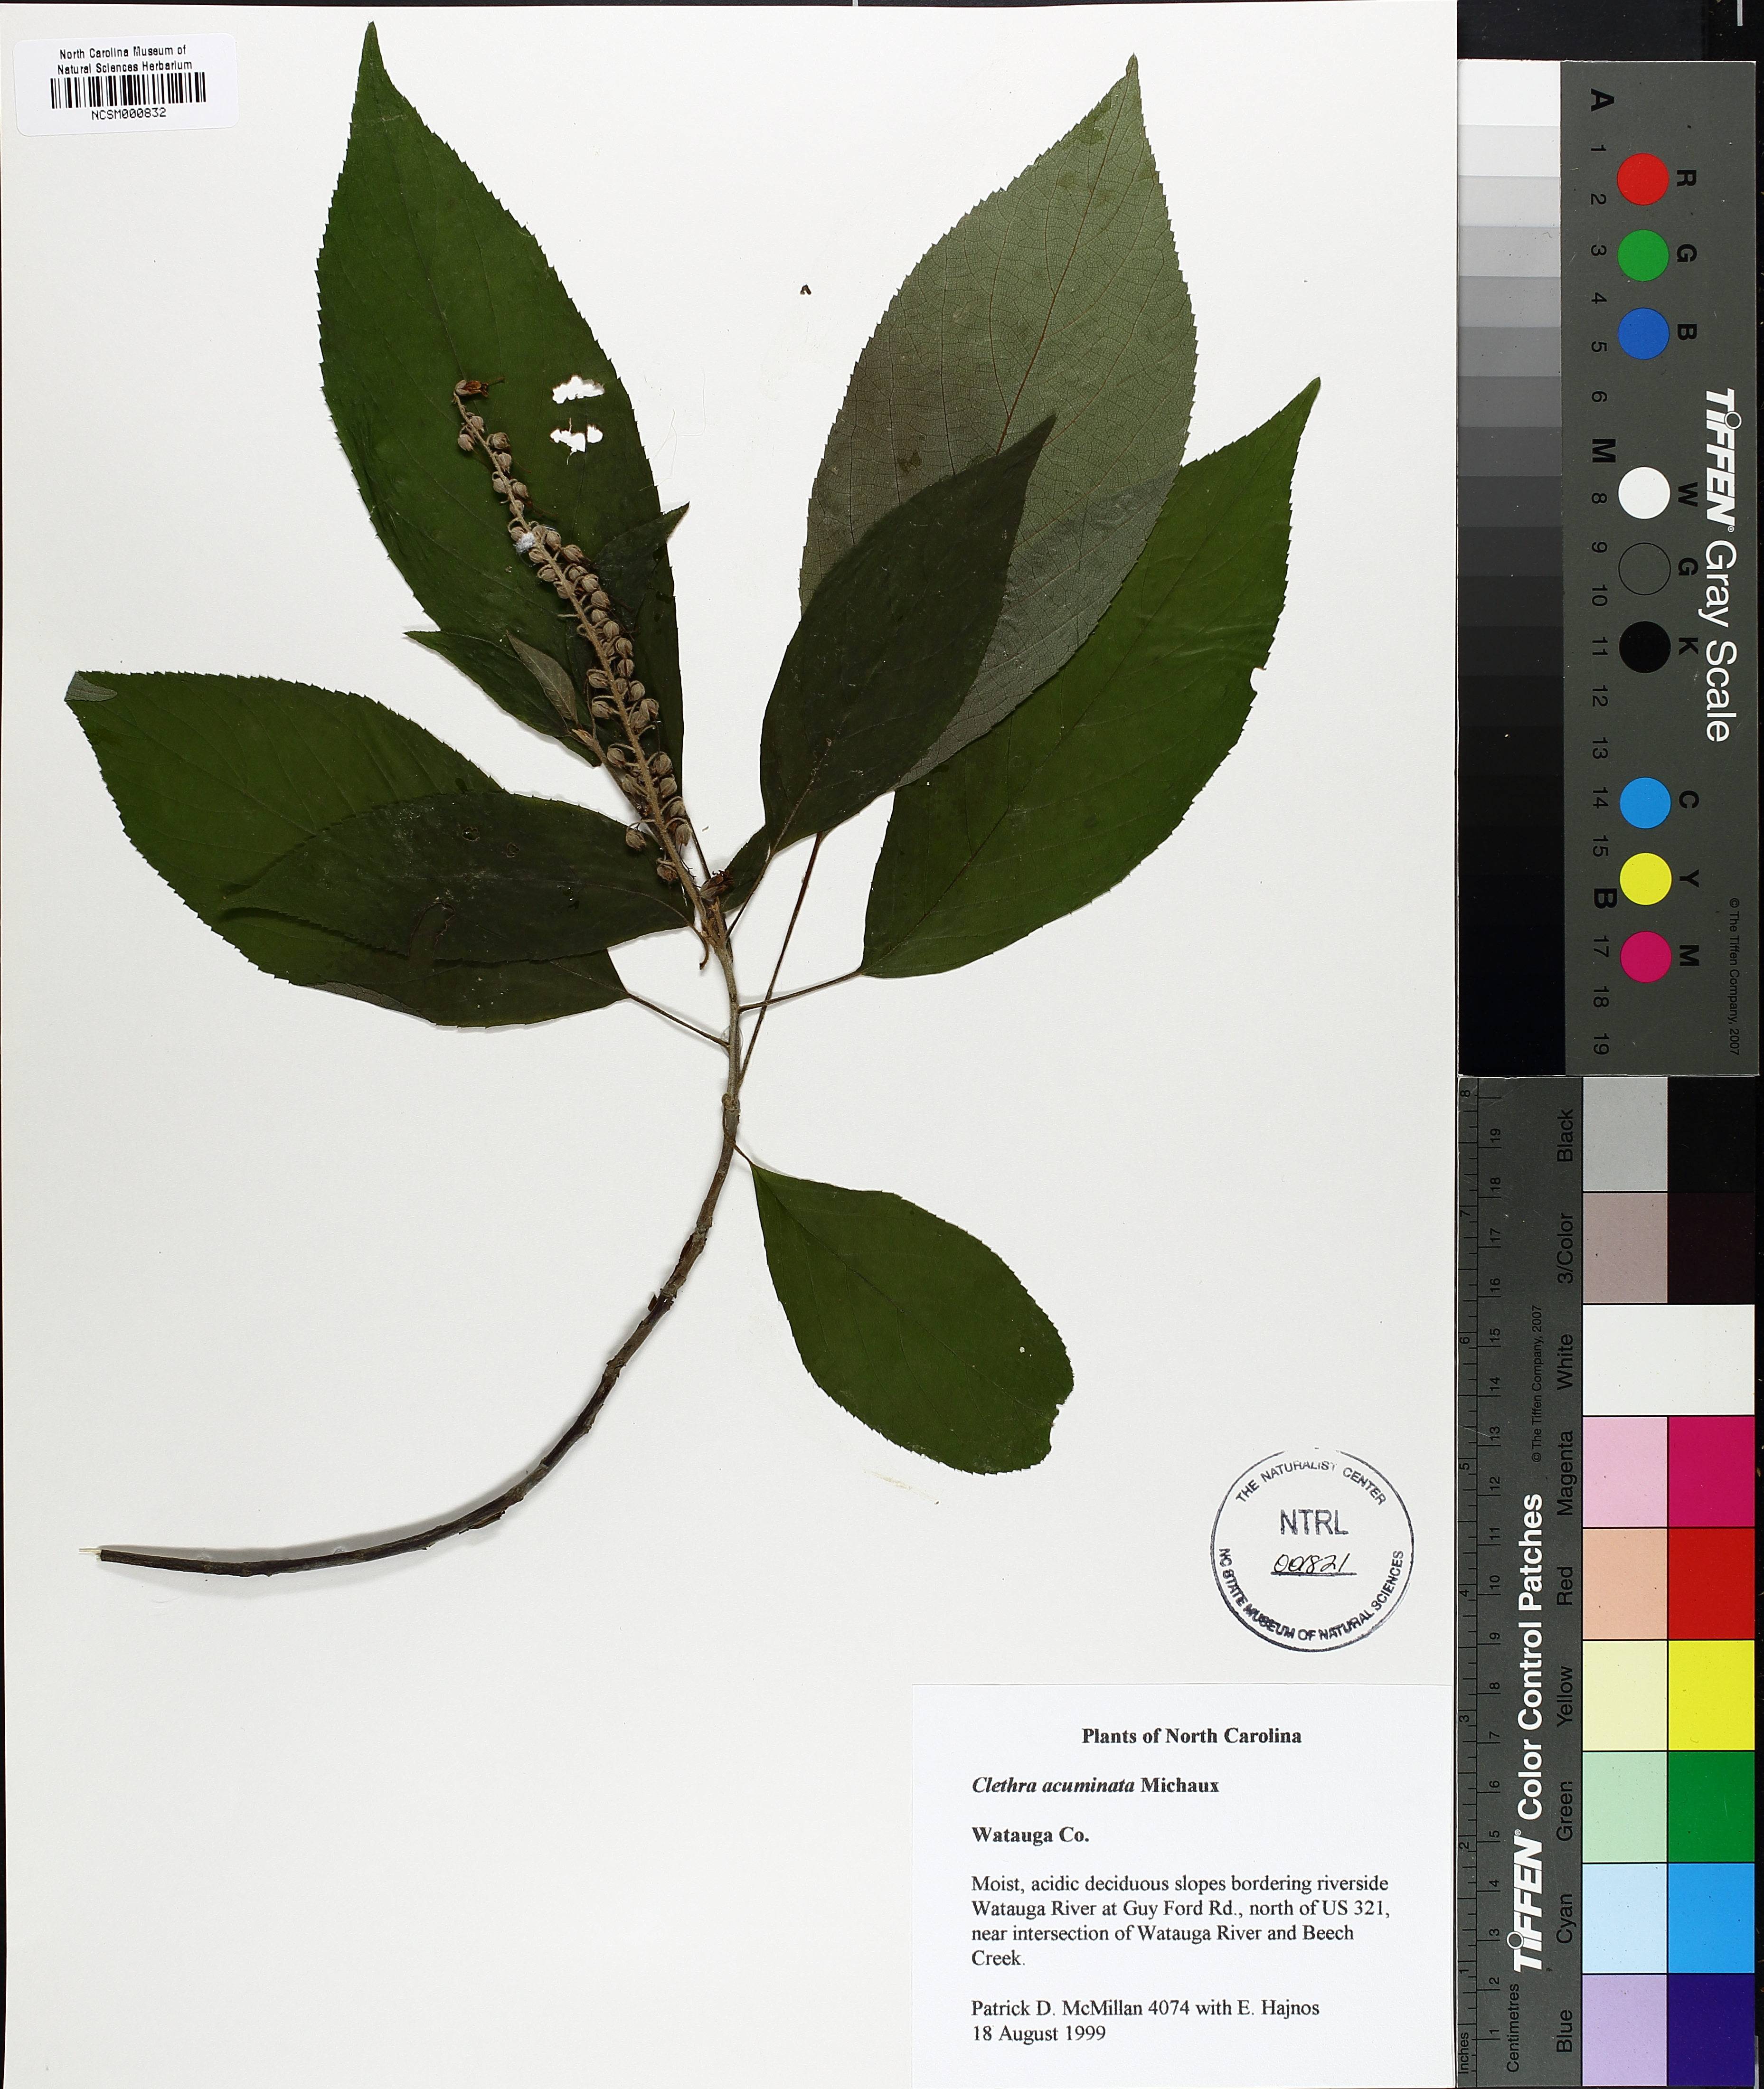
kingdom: Plantae
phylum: Tracheophyta
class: Magnoliopsida
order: Ericales
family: Clethraceae
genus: Clethra
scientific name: Clethra acuminata
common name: Mountain sweet pepperbush
